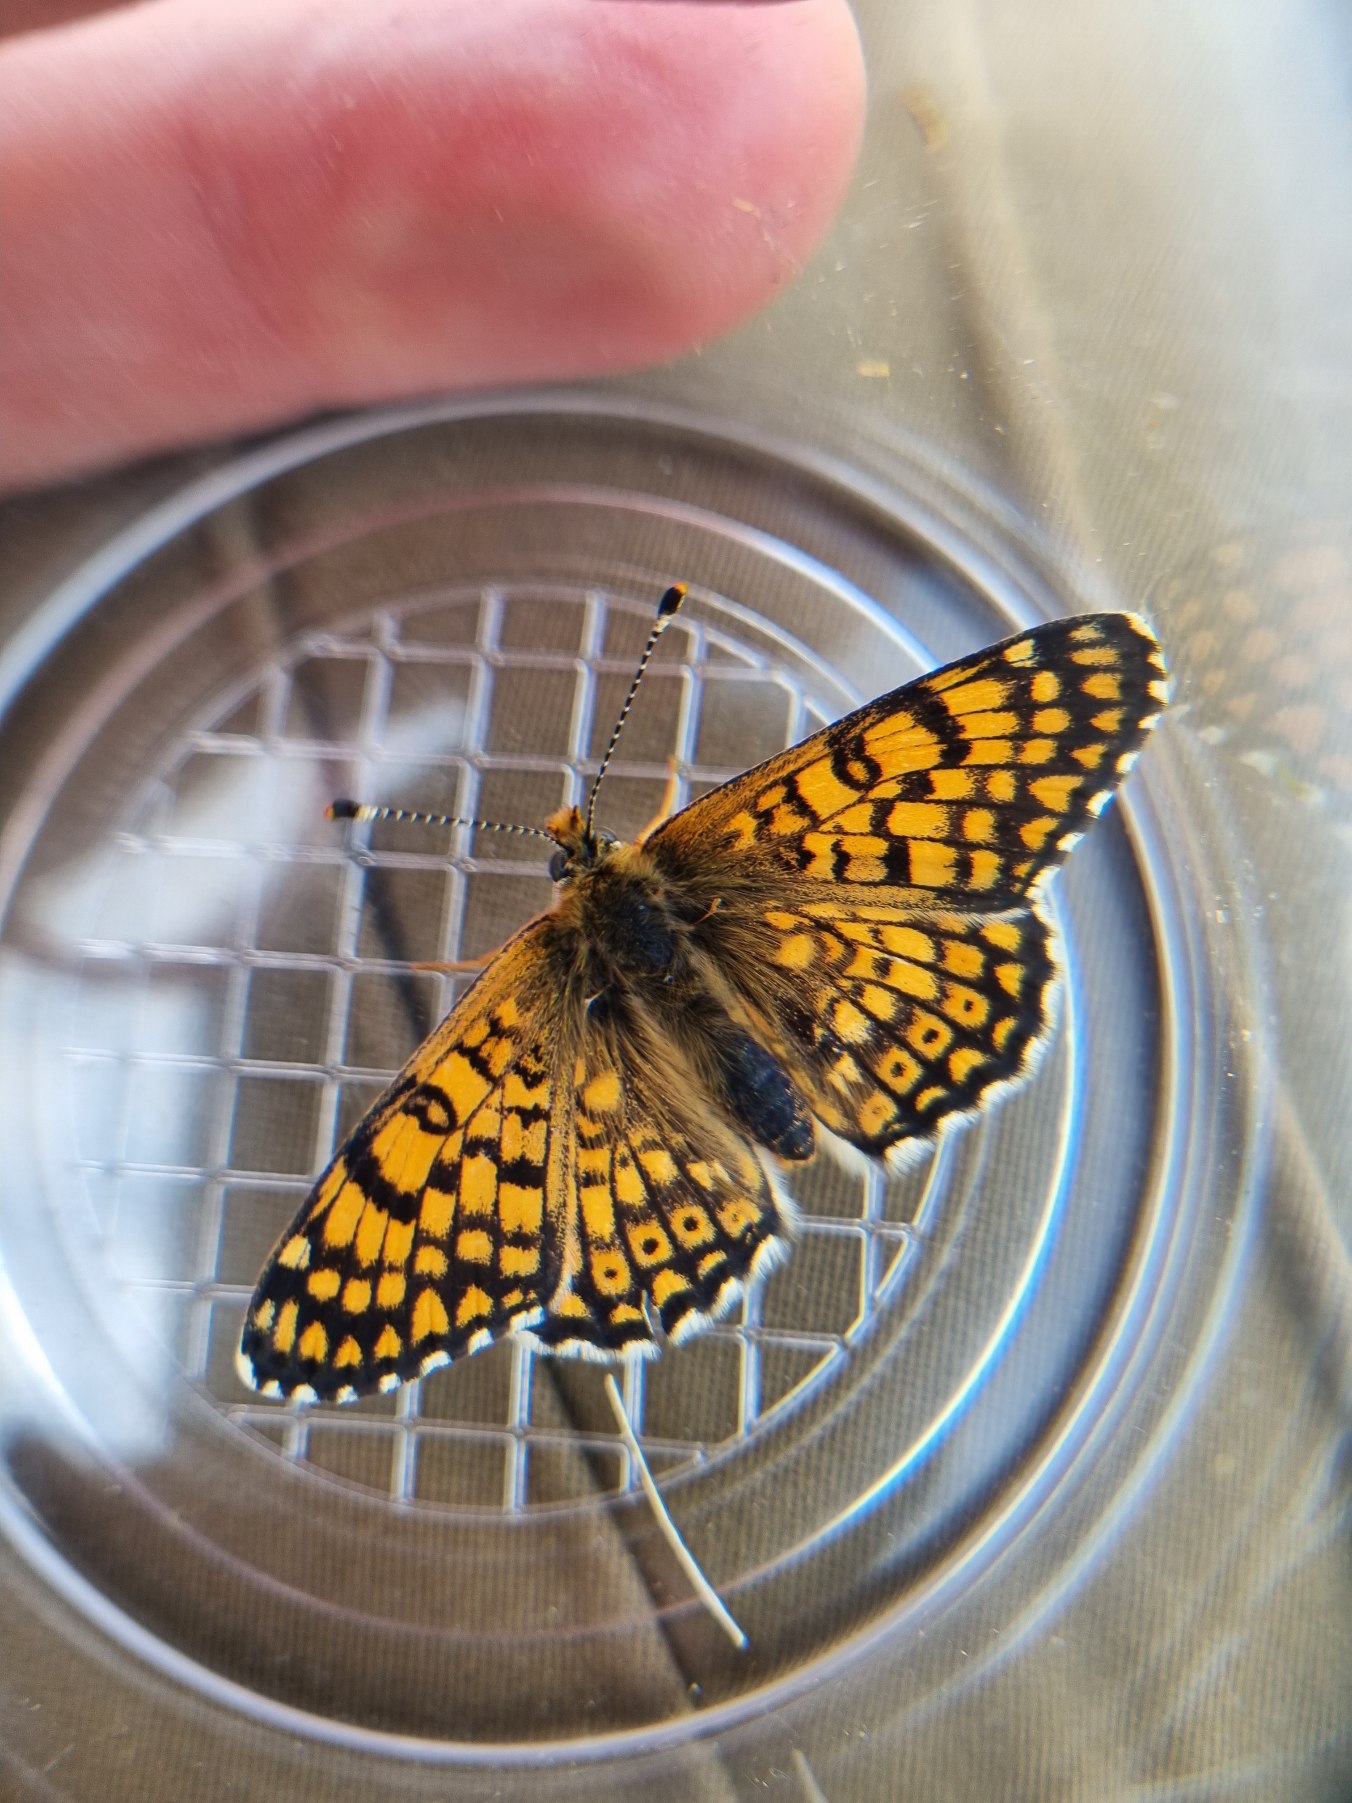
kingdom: Animalia
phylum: Arthropoda
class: Insecta
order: Lepidoptera
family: Nymphalidae
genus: Melitaea
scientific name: Melitaea cinxia
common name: Okkergul pletvinge
